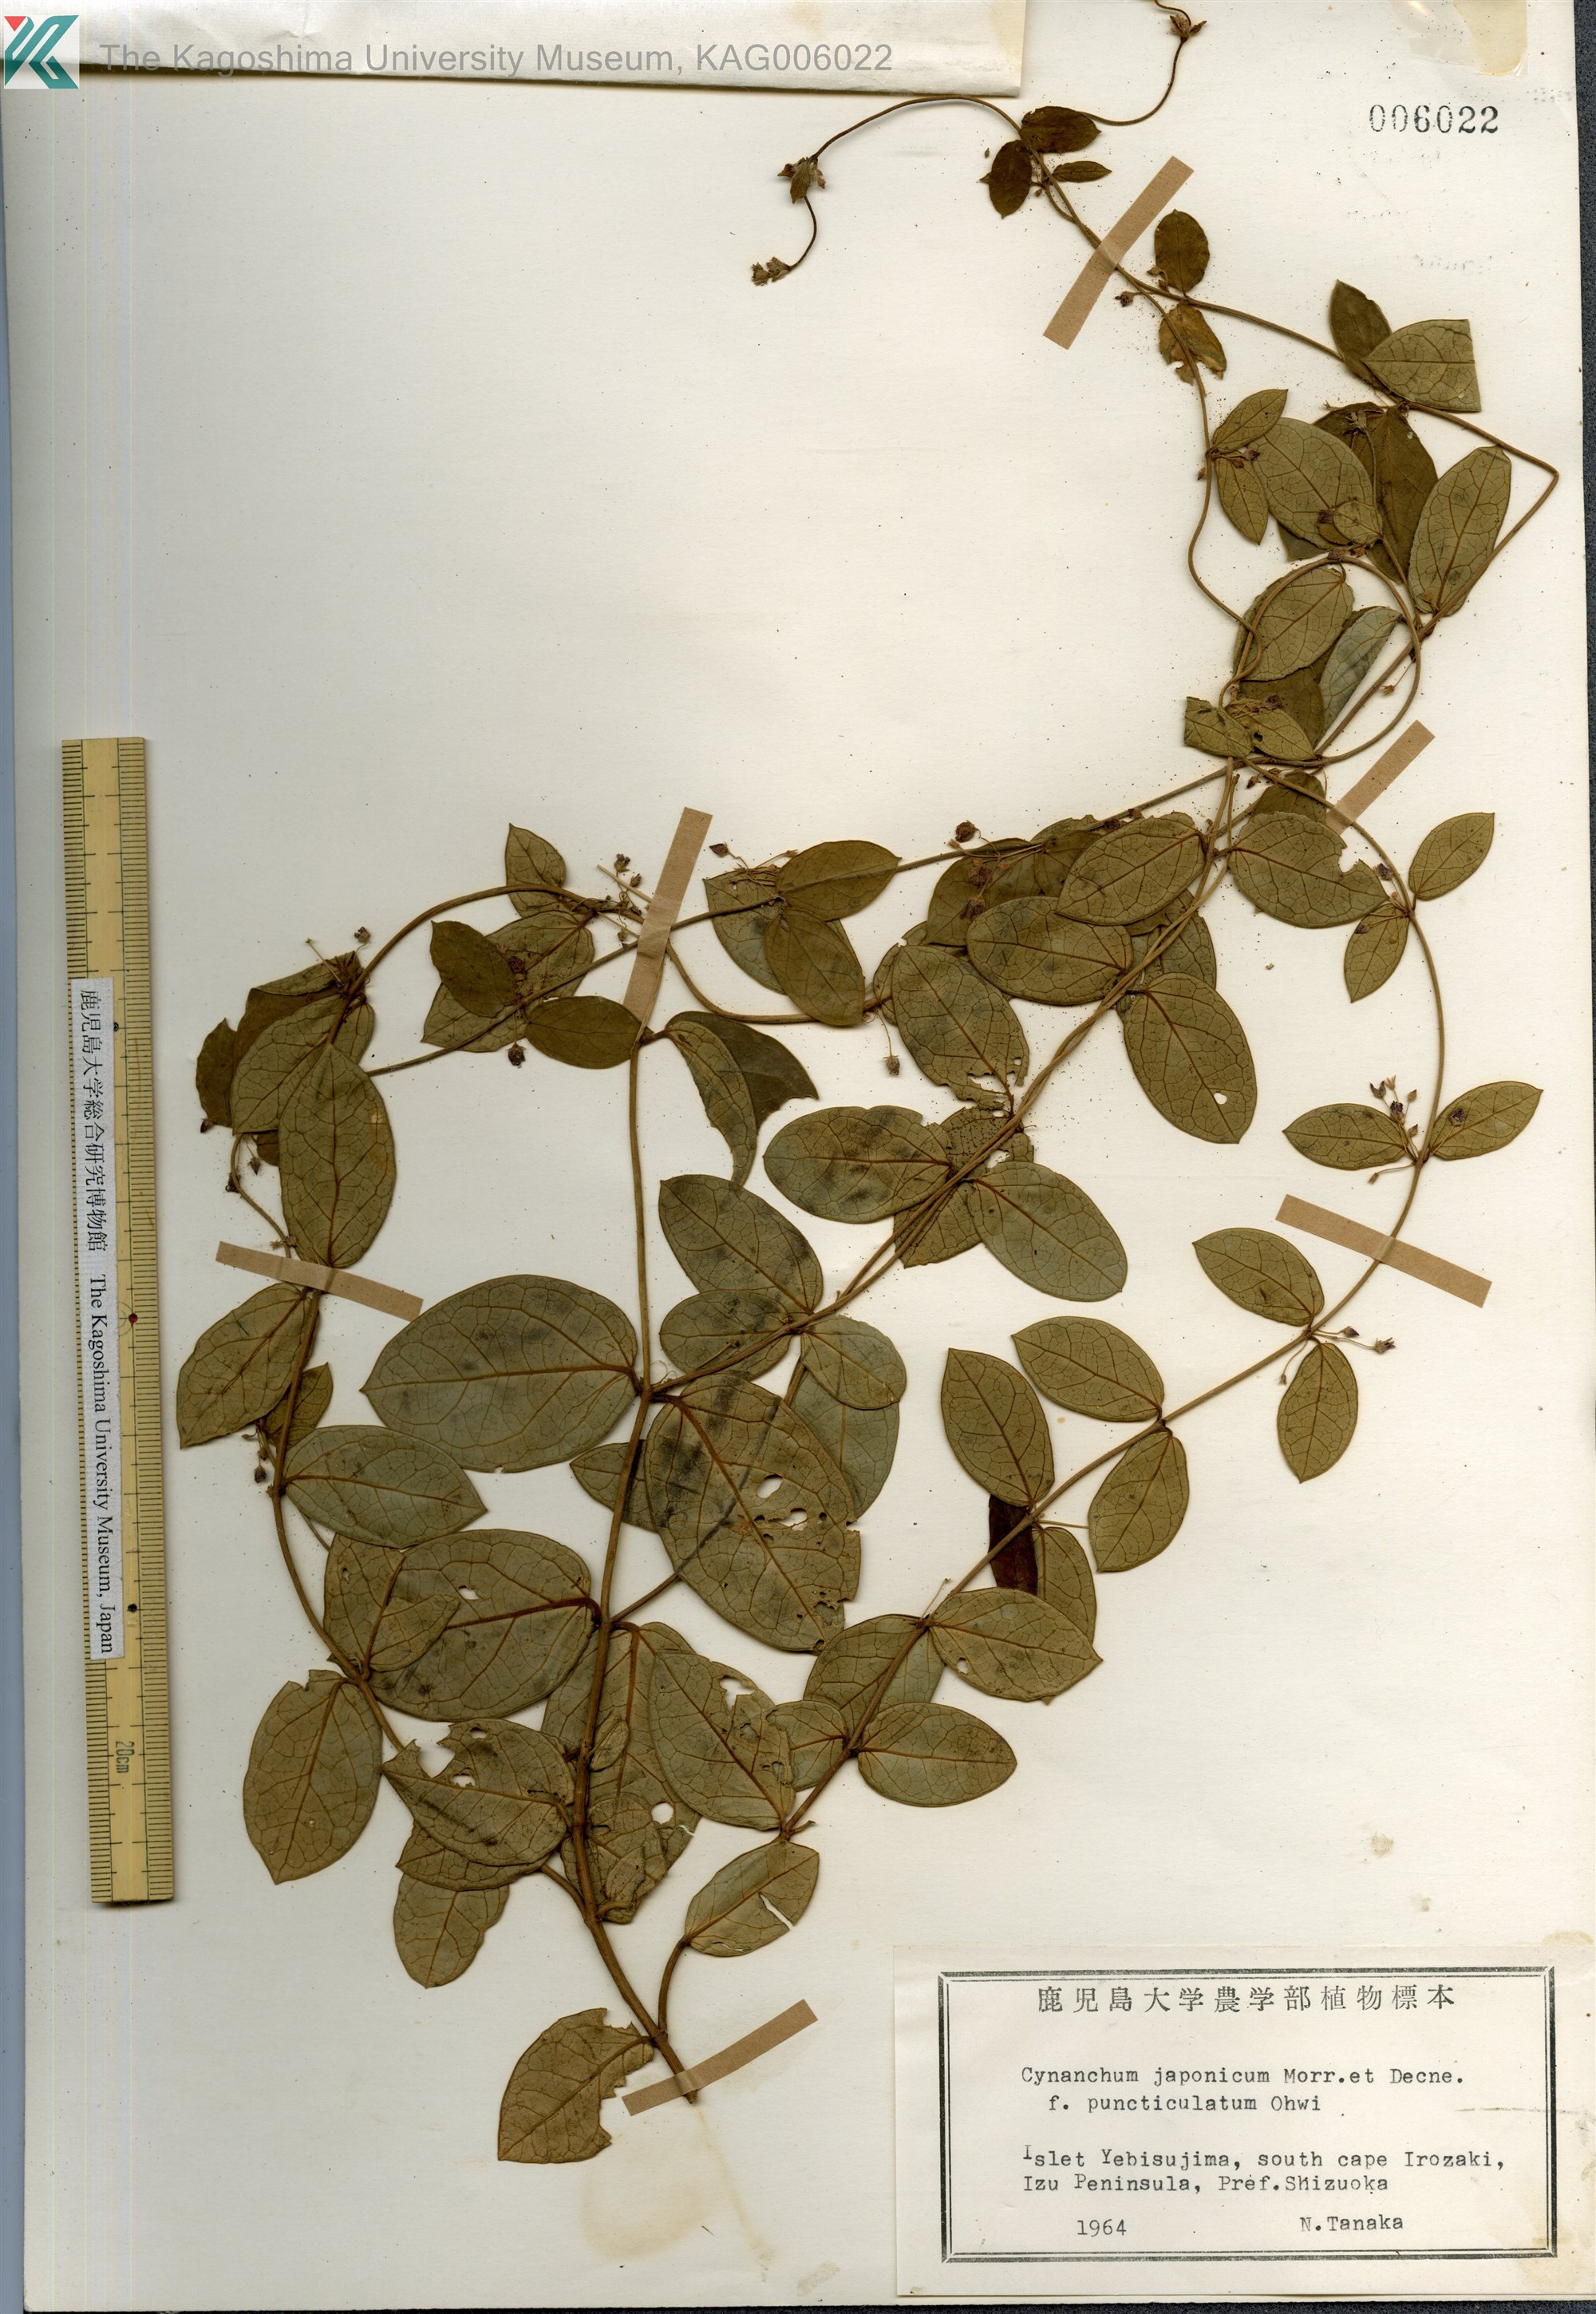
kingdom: Plantae
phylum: Tracheophyta
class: Magnoliopsida
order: Gentianales
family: Apocynaceae
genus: Vincetoxicum
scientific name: Vincetoxicum japonicum
